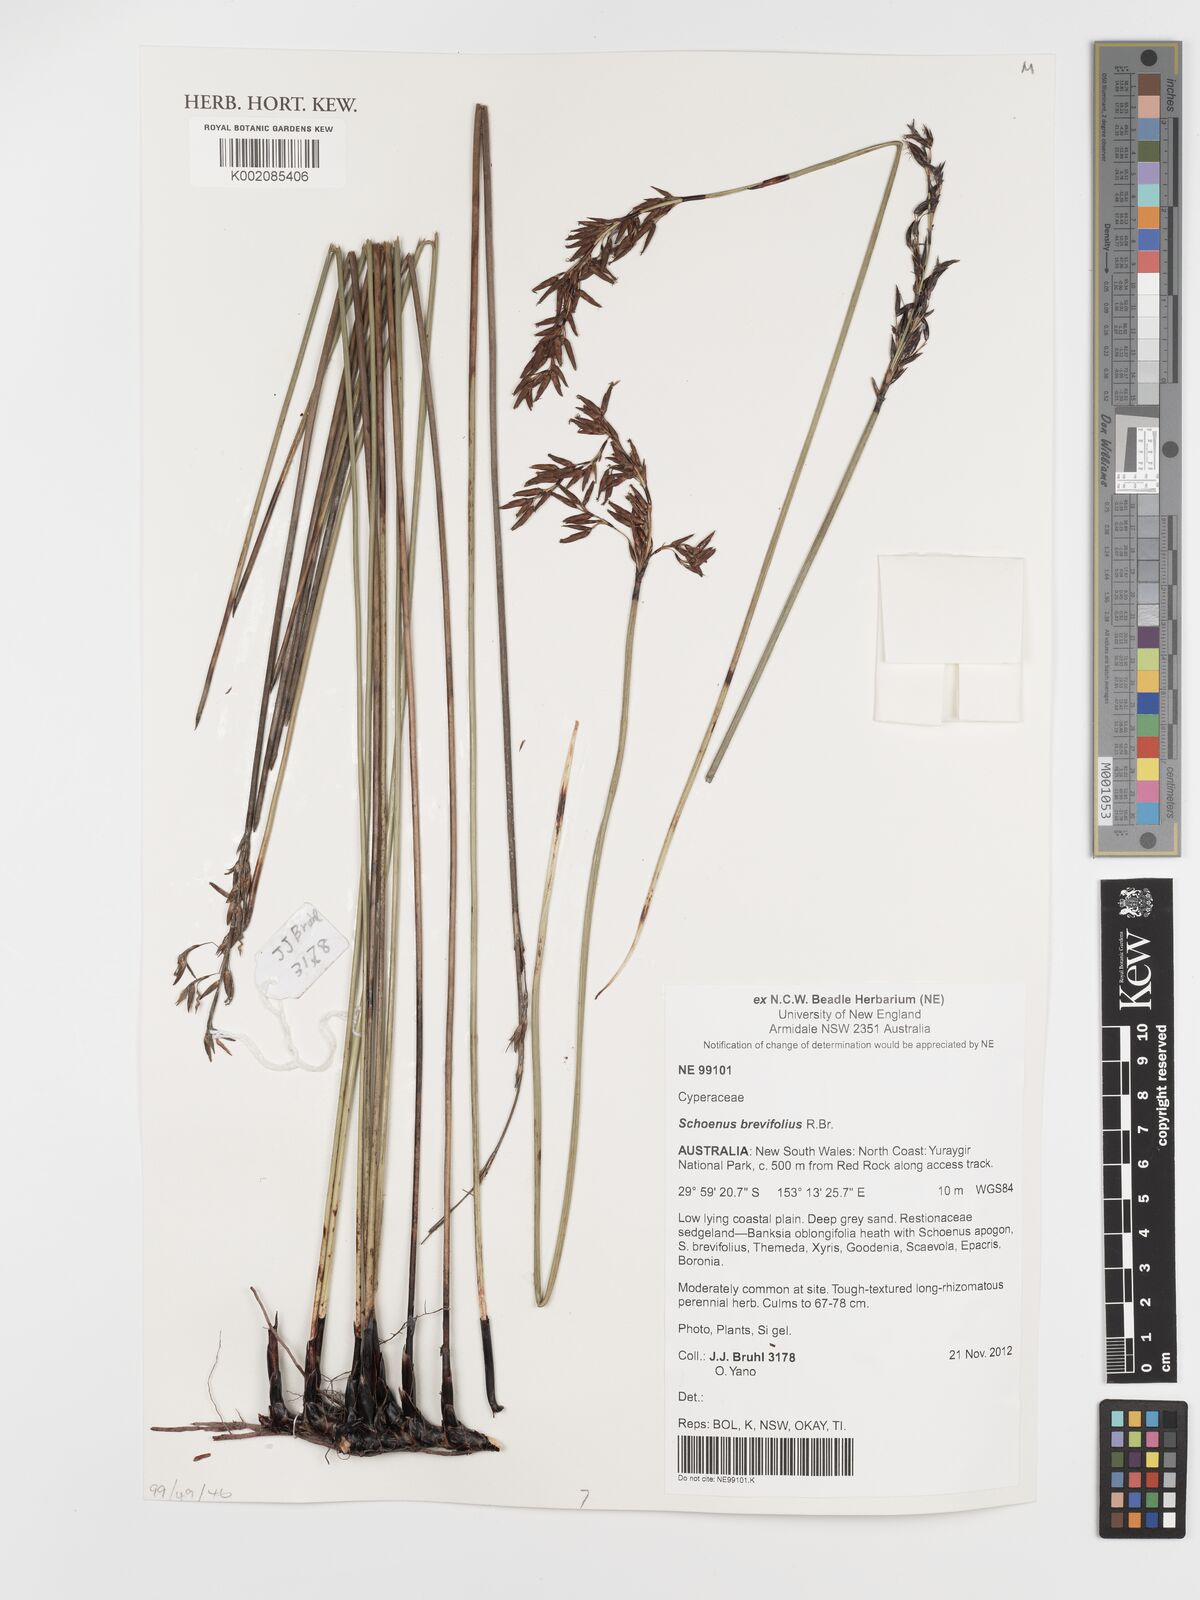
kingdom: Plantae
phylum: Tracheophyta
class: Liliopsida
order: Poales
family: Cyperaceae
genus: Schoenus
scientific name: Schoenus brevifolius
